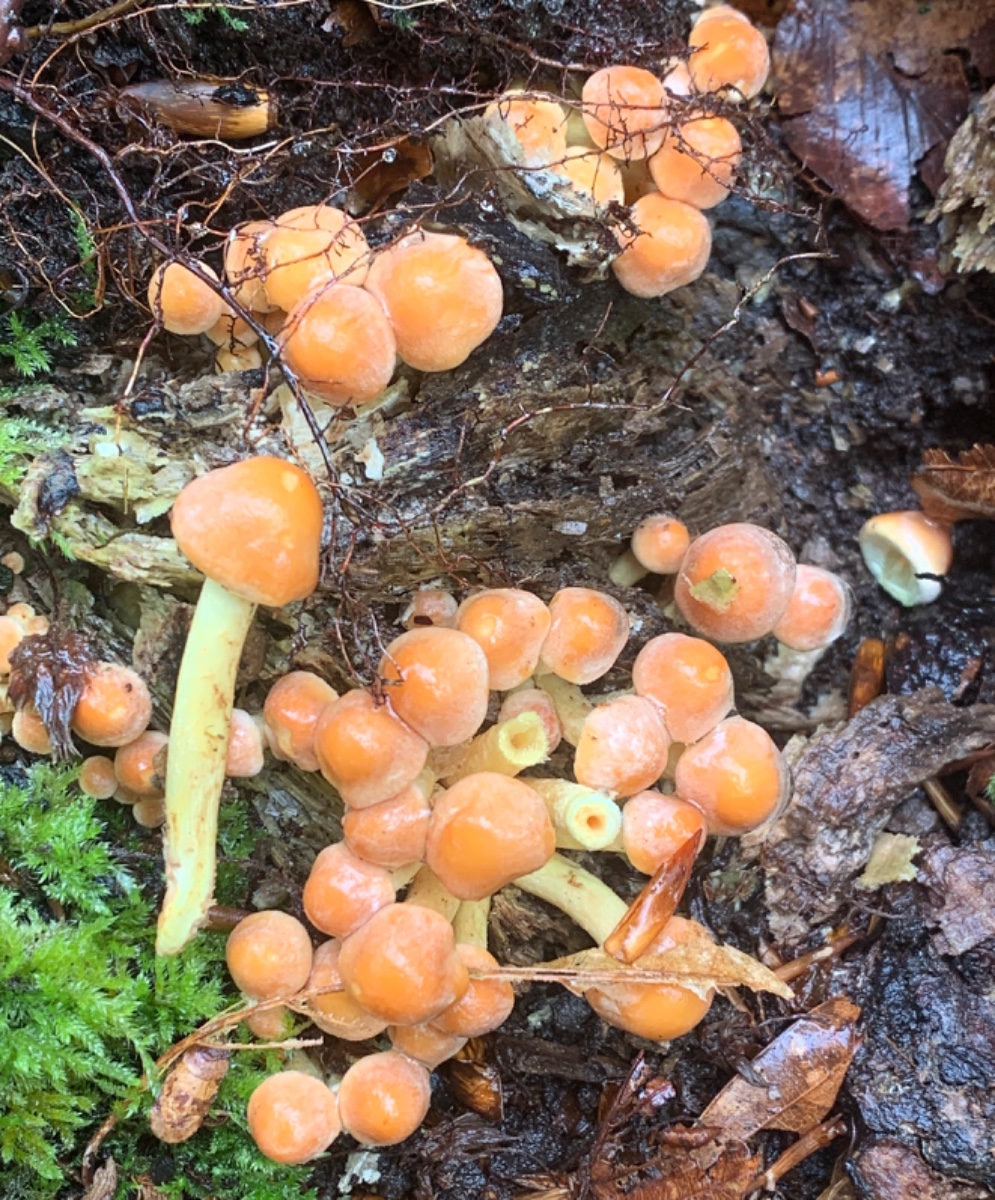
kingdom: Fungi
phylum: Basidiomycota
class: Agaricomycetes
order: Agaricales
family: Strophariaceae
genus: Hypholoma
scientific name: Hypholoma fasciculare
